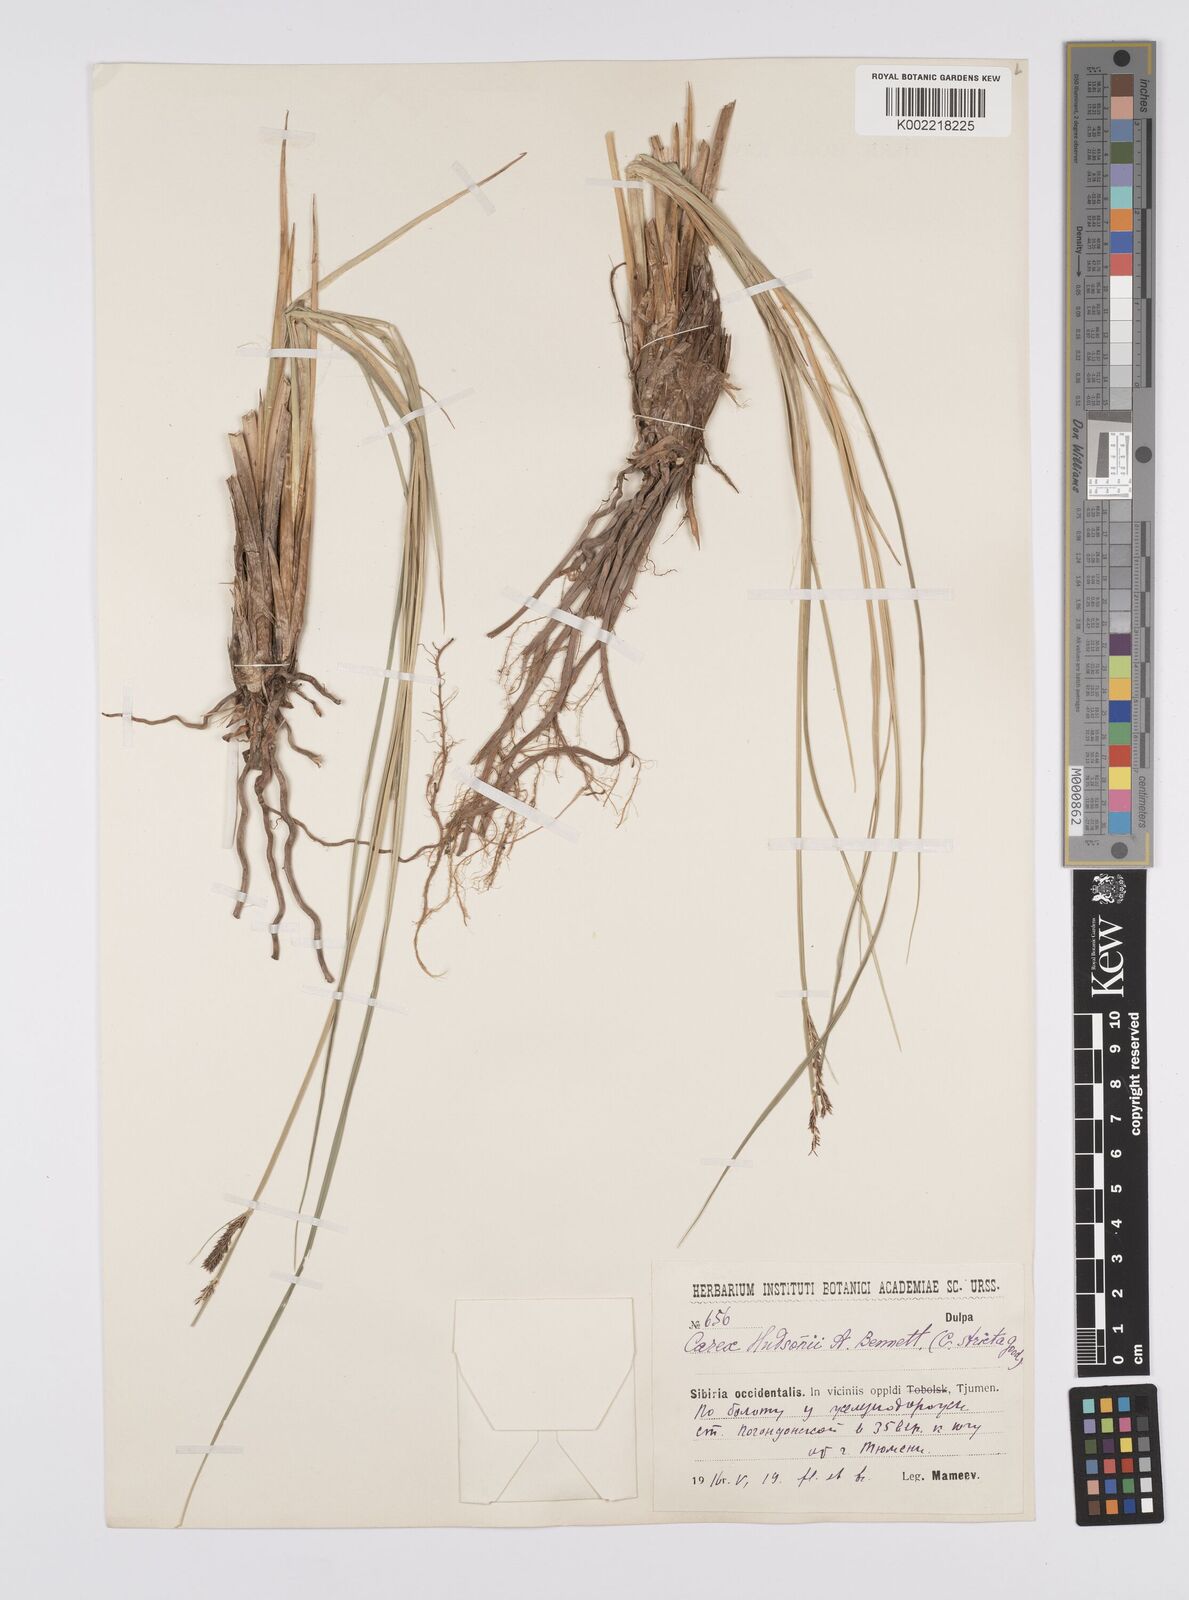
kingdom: Plantae
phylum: Tracheophyta
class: Liliopsida
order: Poales
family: Cyperaceae
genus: Carex
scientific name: Carex elata
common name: Tufted sedge
